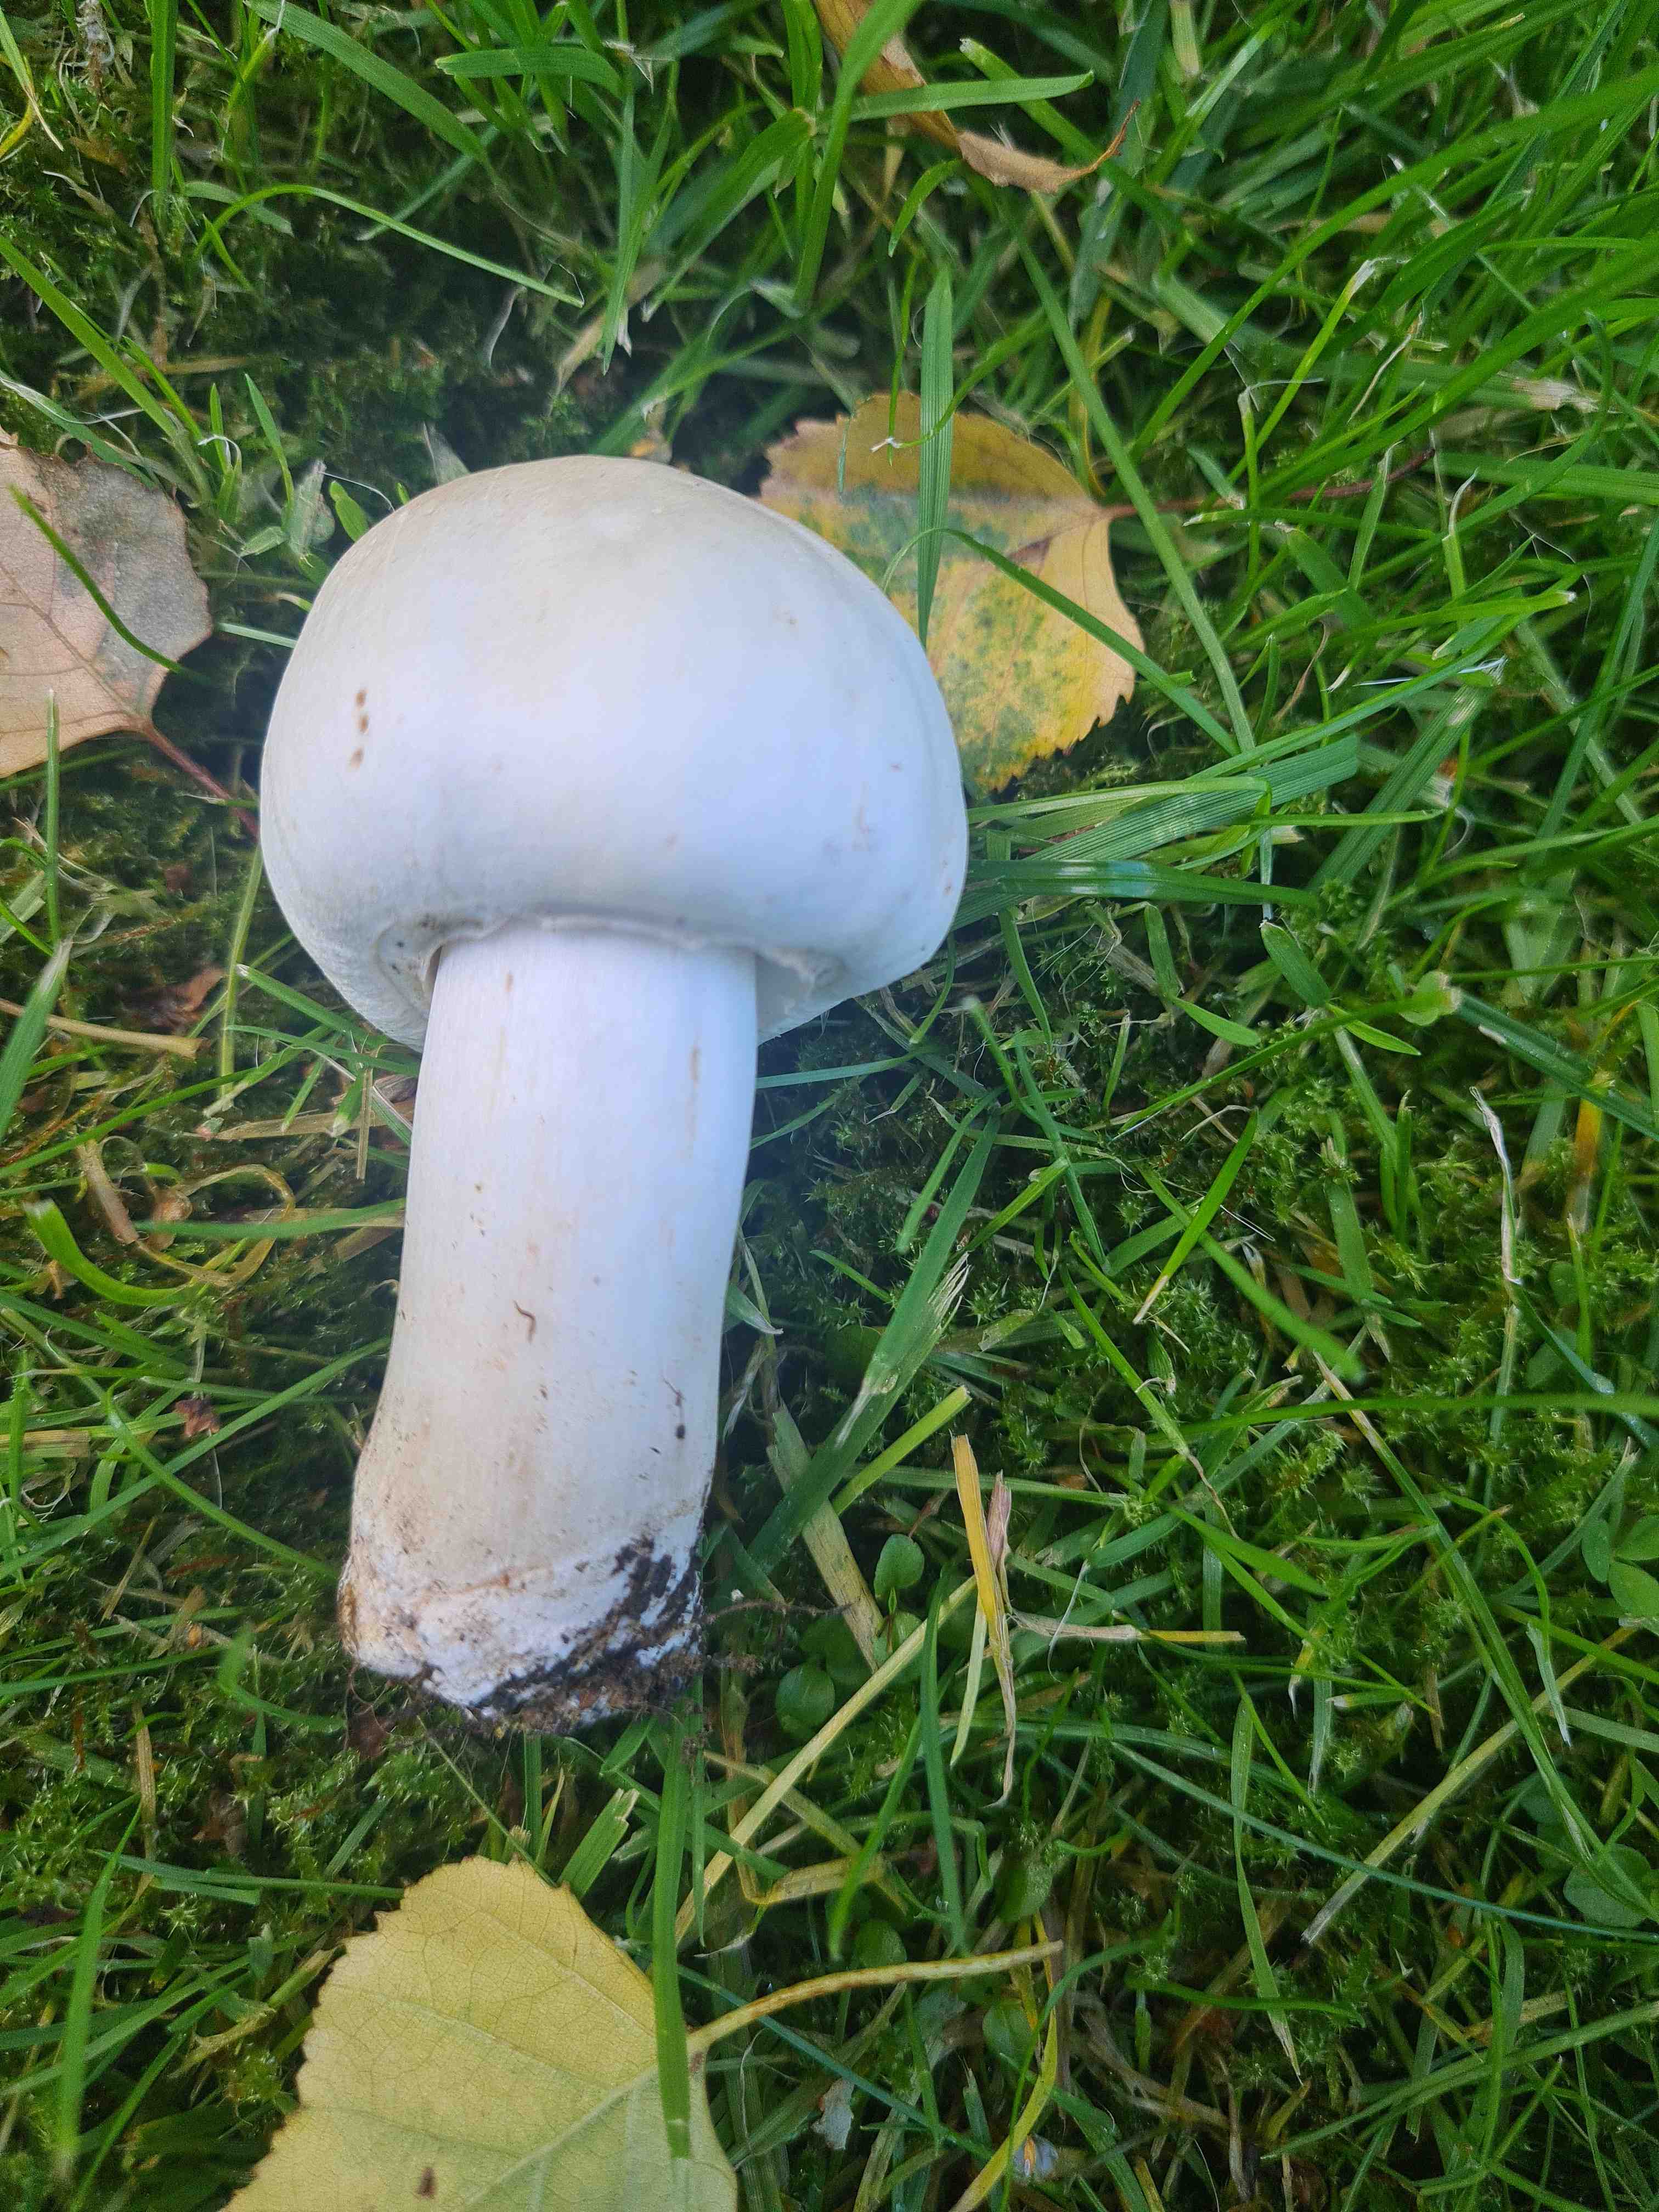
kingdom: Fungi
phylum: Basidiomycota
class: Agaricomycetes
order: Agaricales
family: Agaricaceae
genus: Agaricus
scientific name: Agaricus xanthodermus
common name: karbol-champignon
